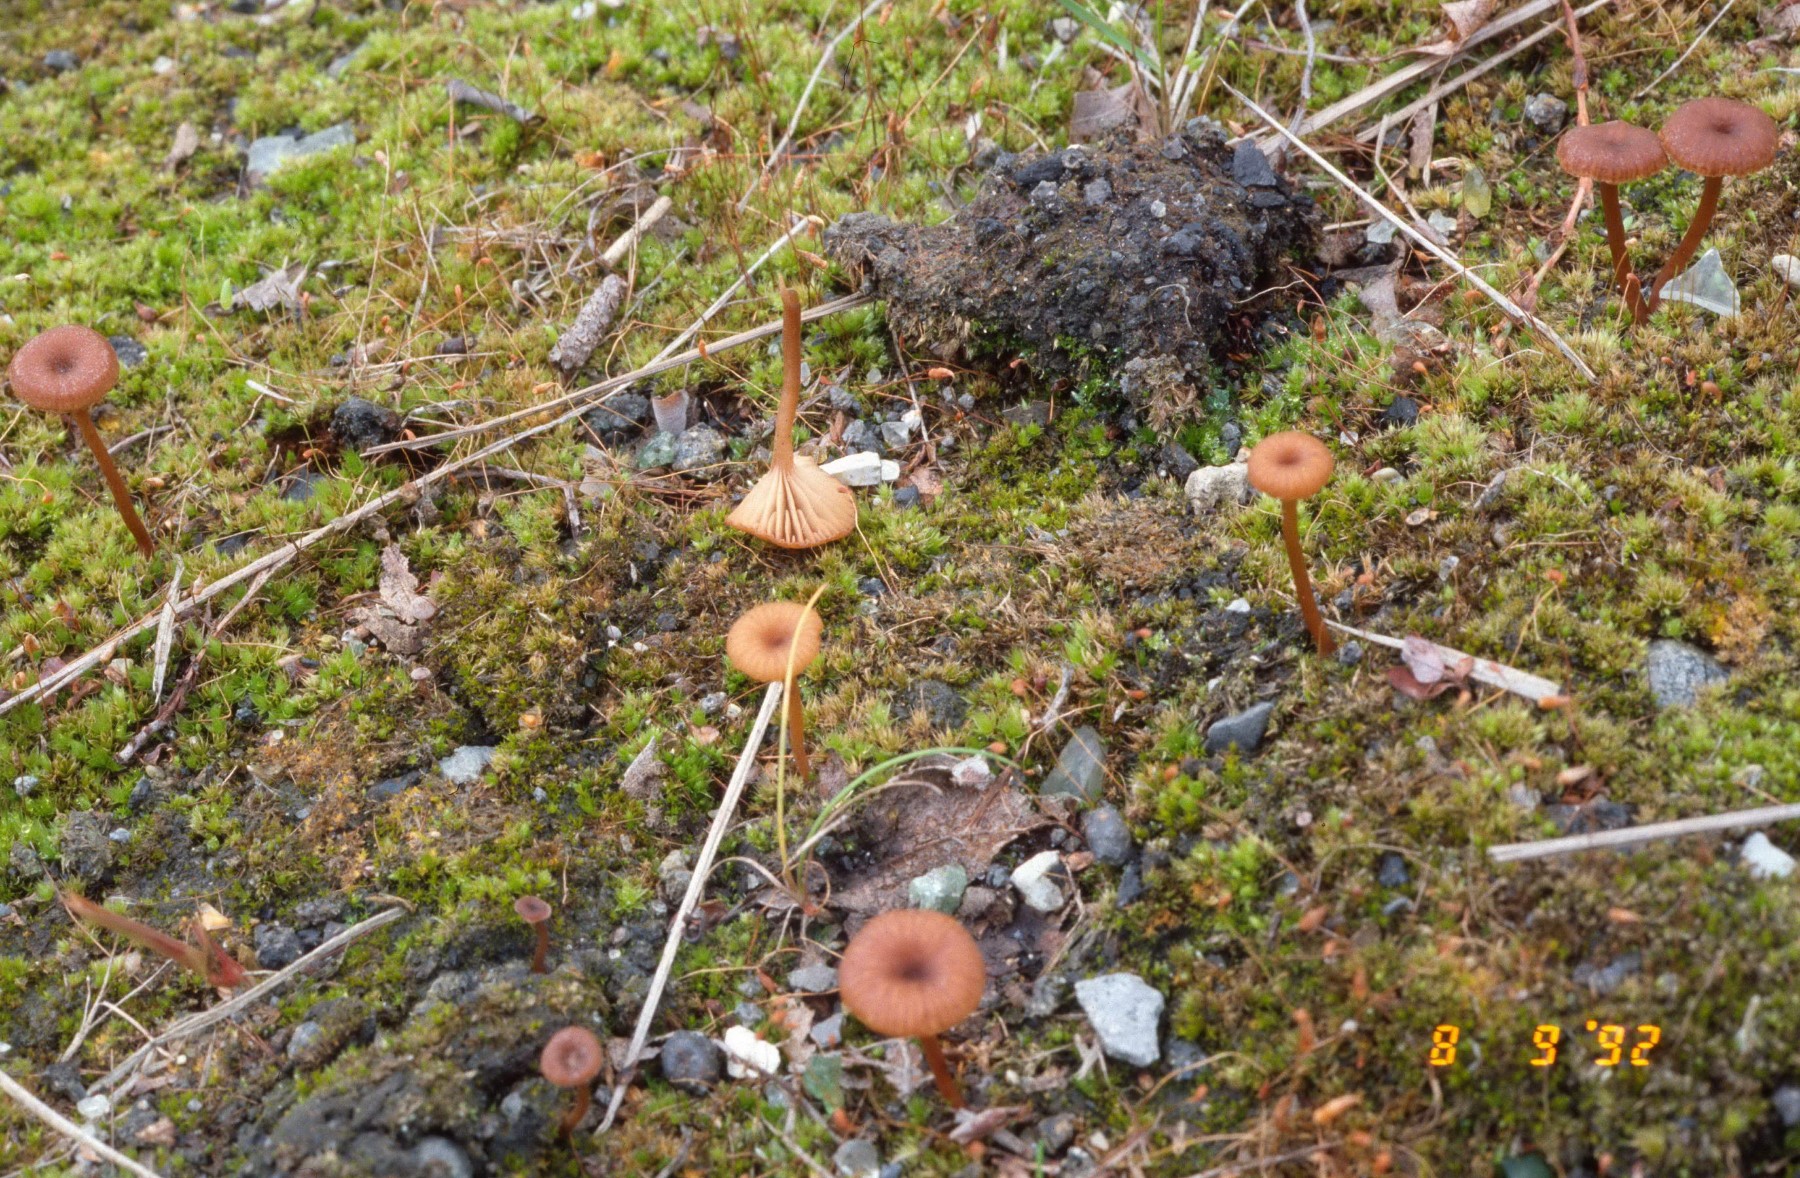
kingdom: Fungi
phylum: Basidiomycota
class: Agaricomycetes
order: Agaricales
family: Tricholomataceae
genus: Omphalina
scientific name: Omphalina pyxidata
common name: rødbrun navlehat
